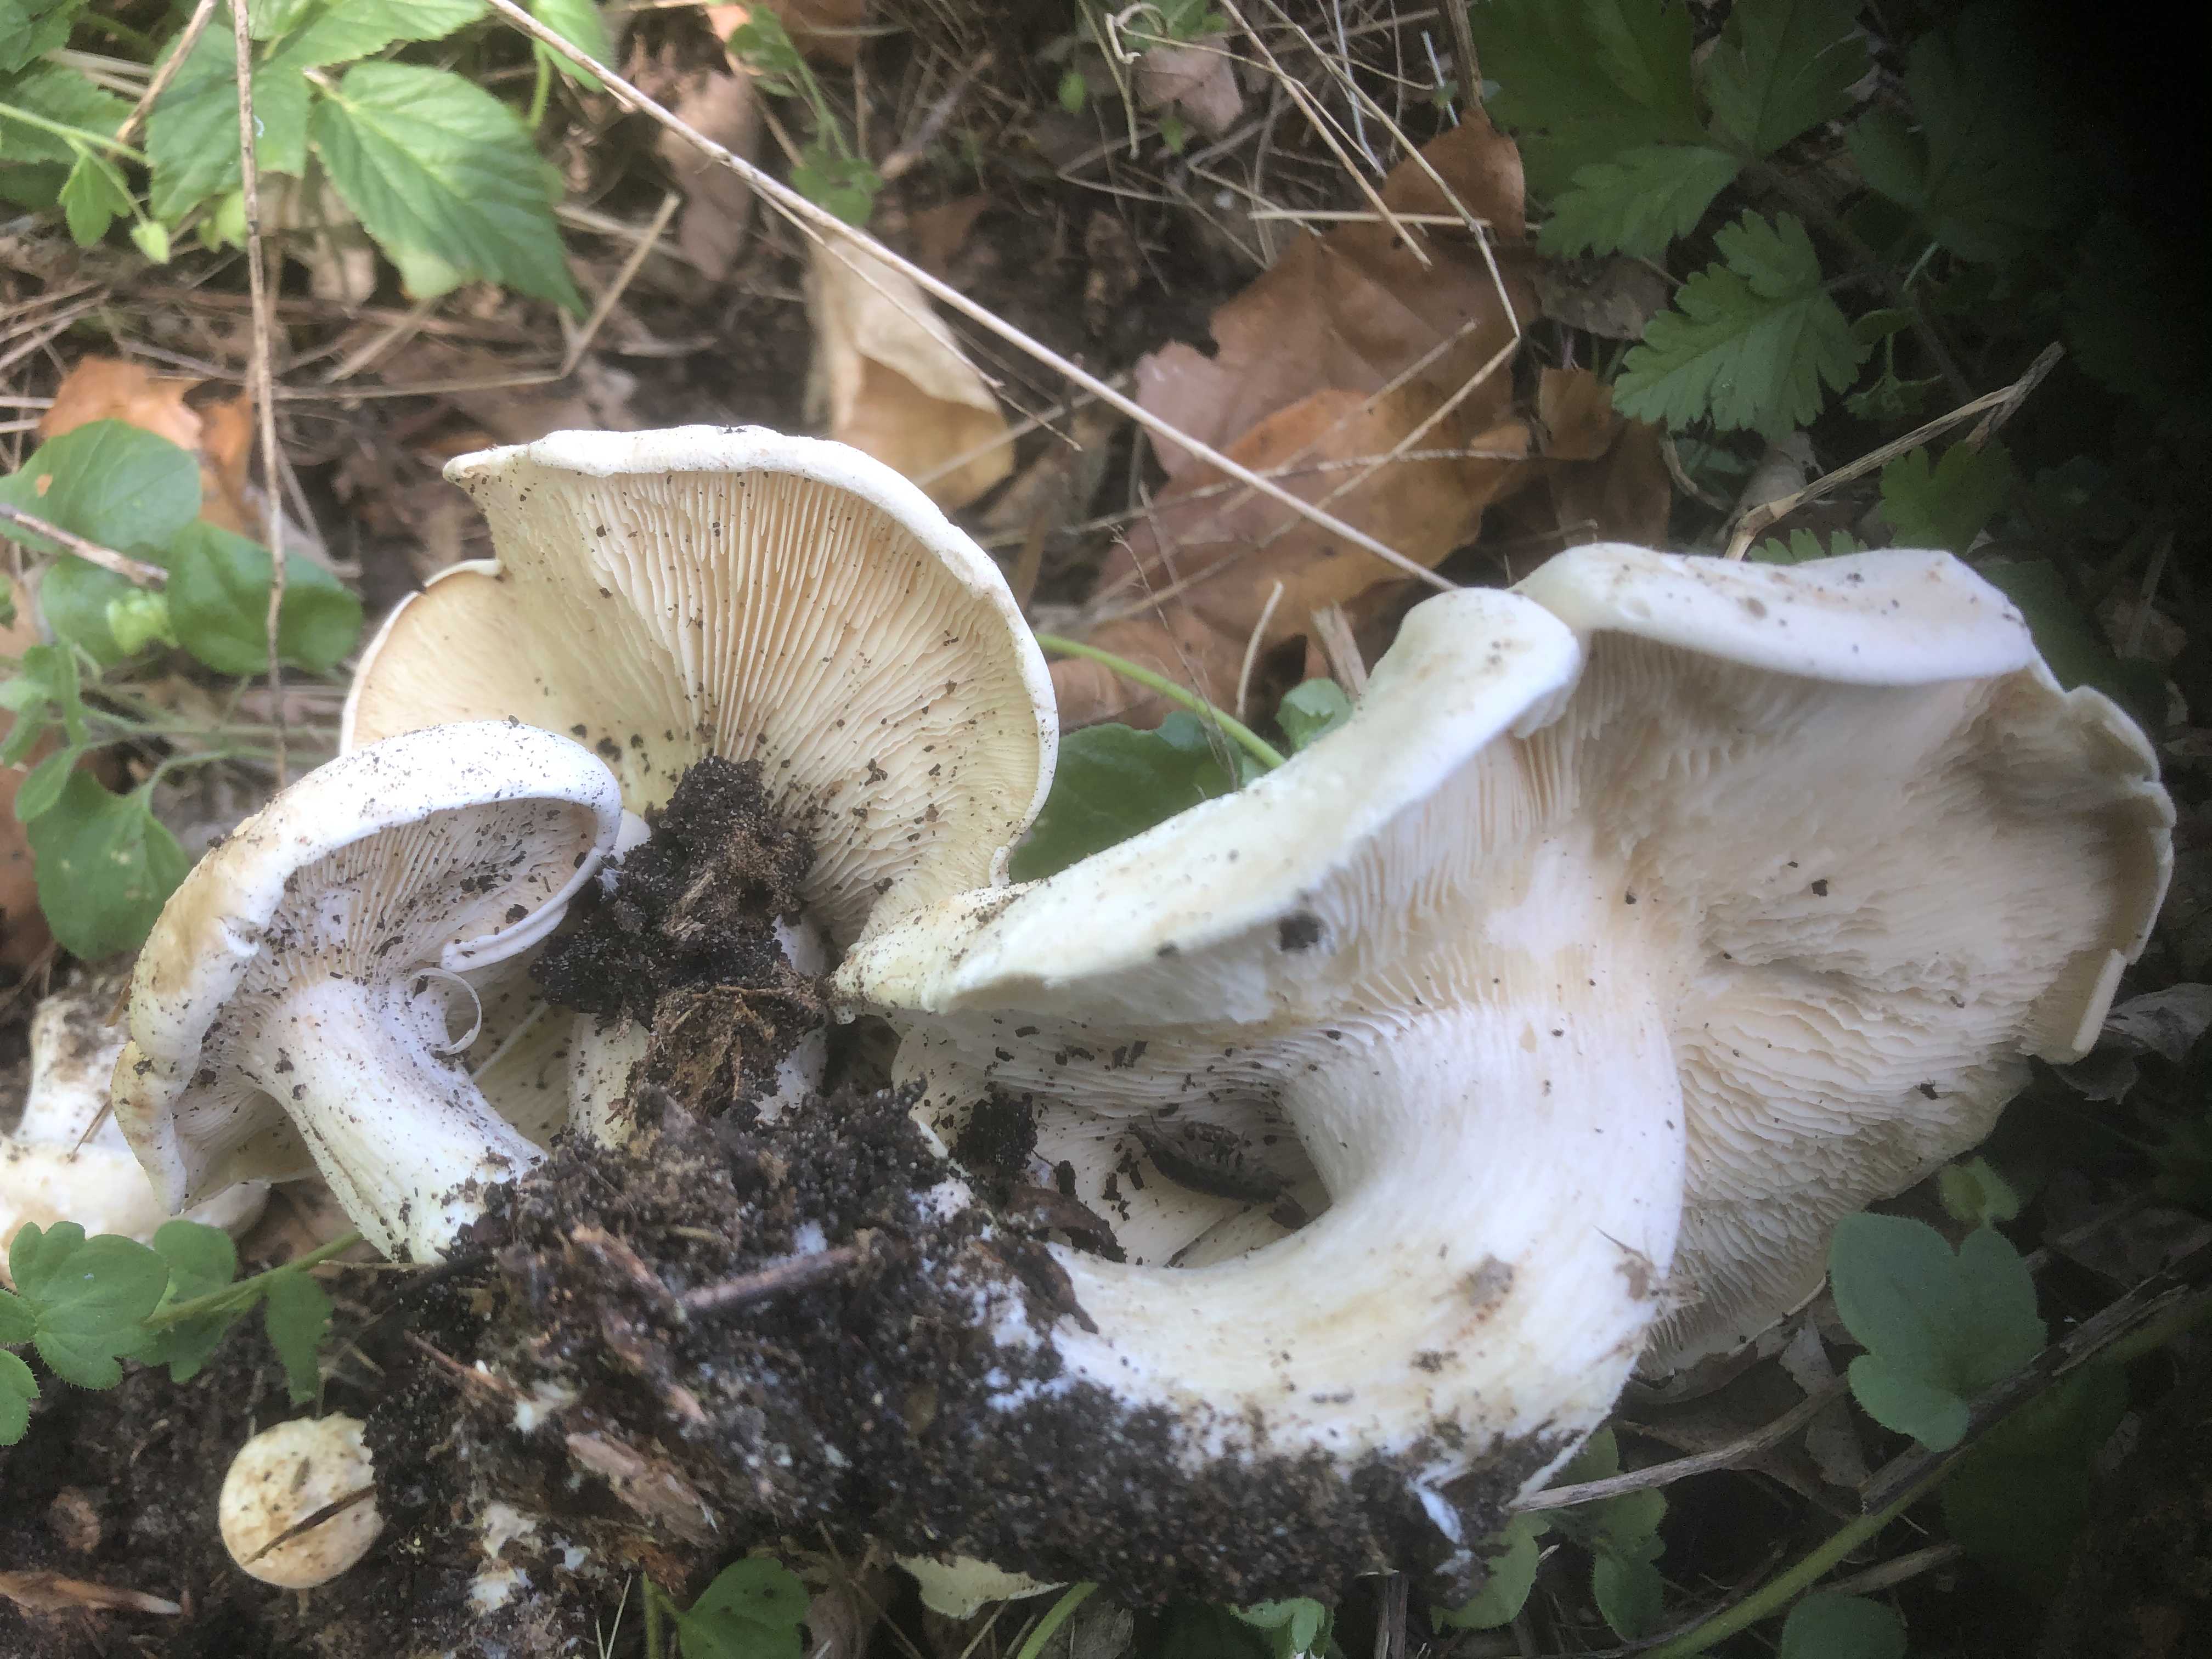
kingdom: Fungi
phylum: Basidiomycota
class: Agaricomycetes
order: Agaricales
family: Lyophyllaceae
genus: Calocybe
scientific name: Calocybe gambosa
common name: vårmusseron
